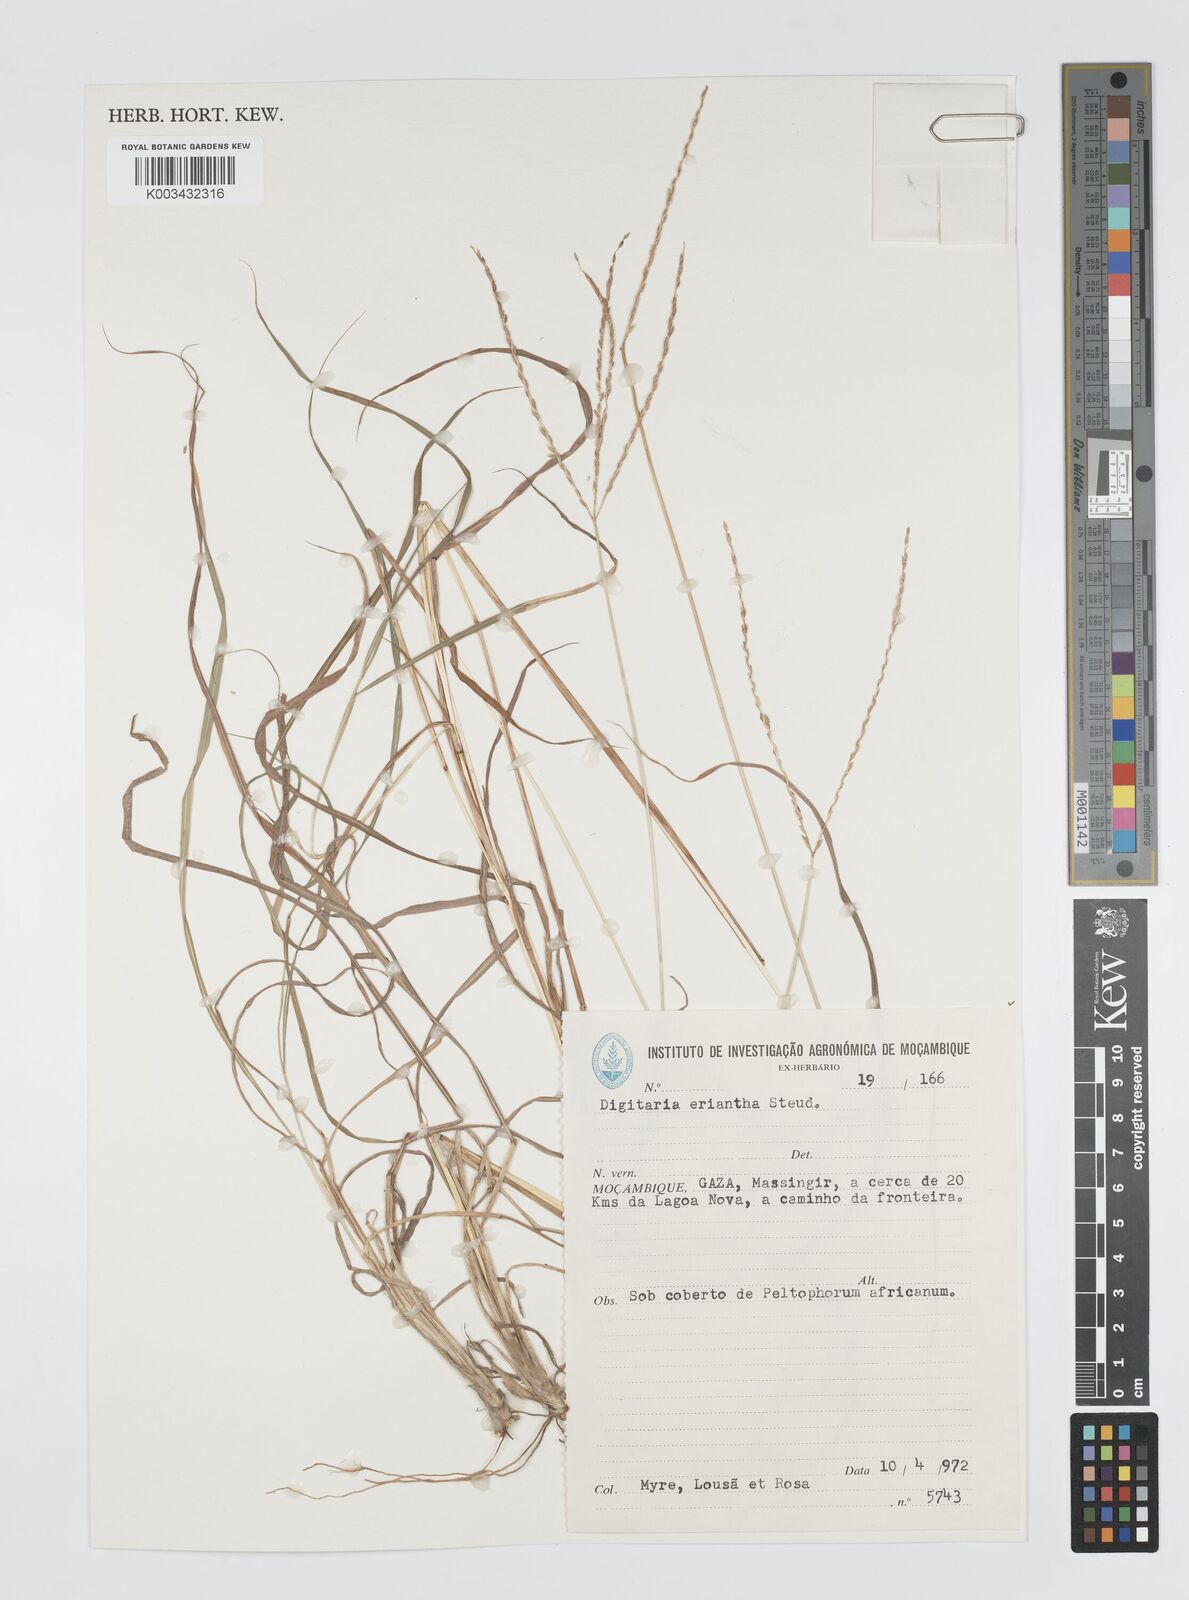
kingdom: Plantae
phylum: Tracheophyta
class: Liliopsida
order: Poales
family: Poaceae
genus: Digitaria
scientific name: Digitaria eriantha
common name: Digitgrass
